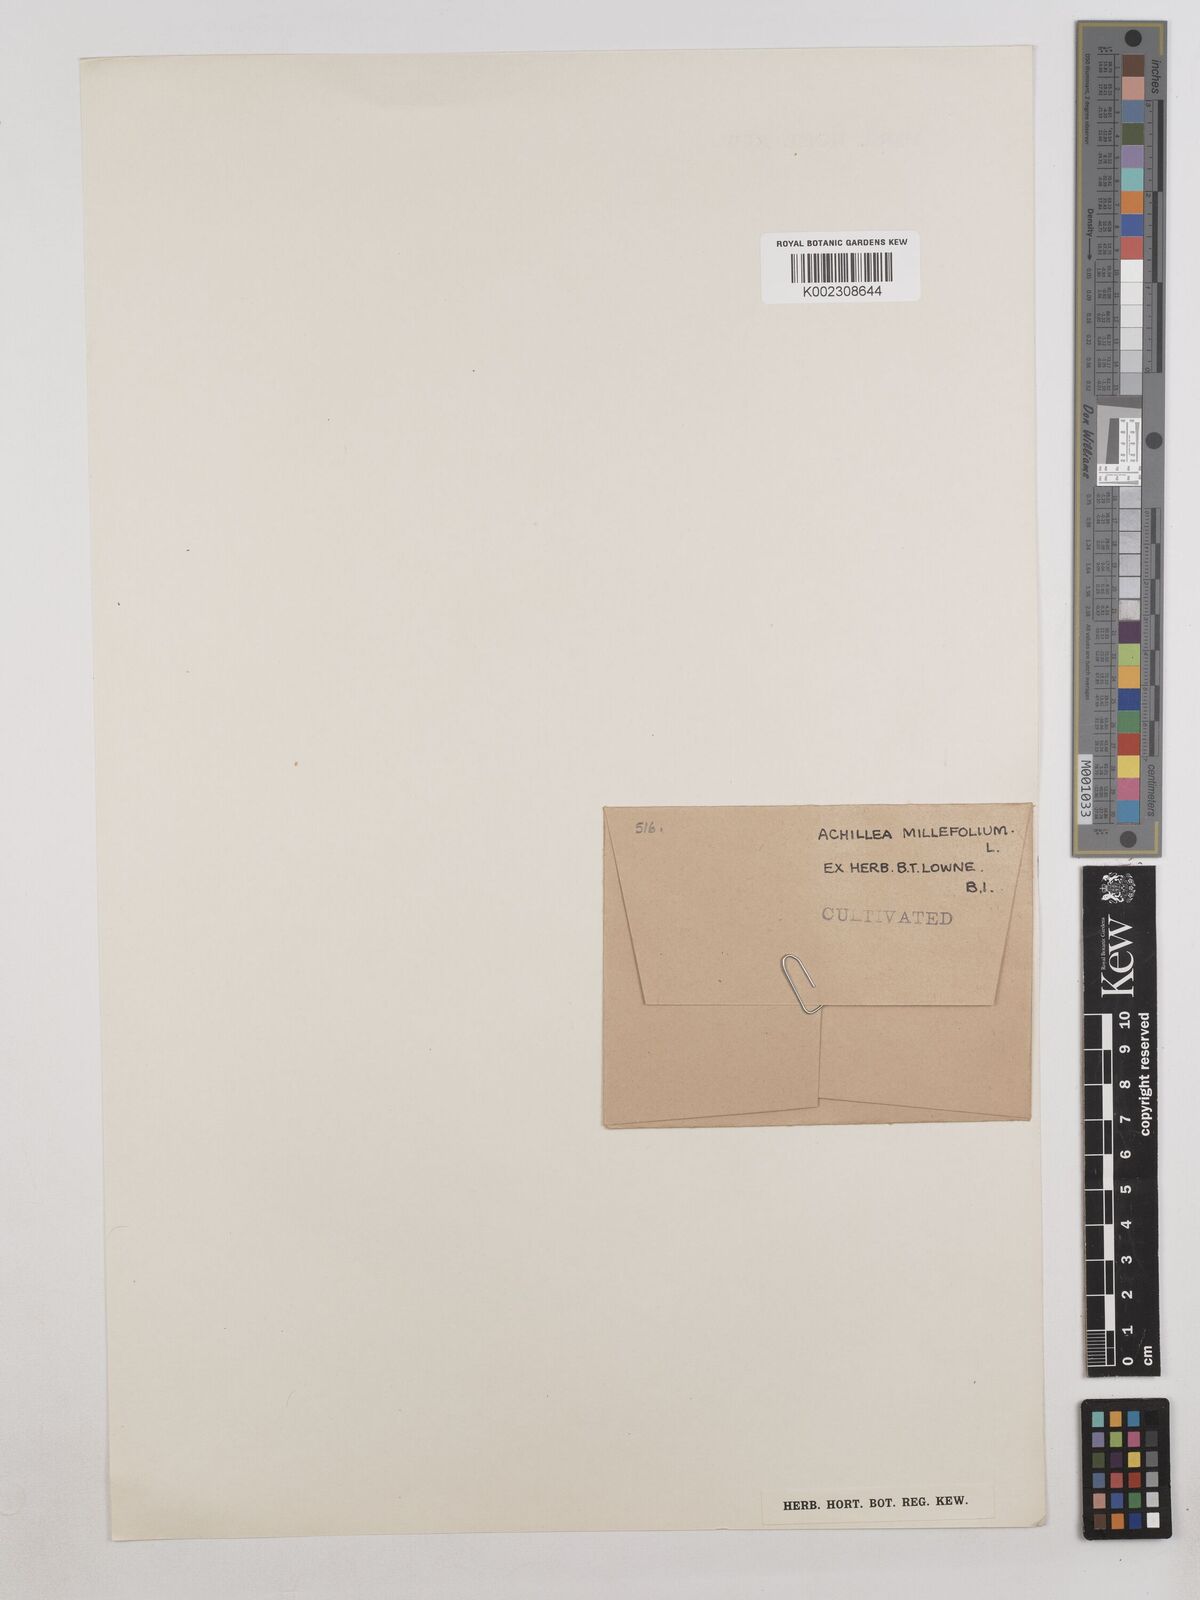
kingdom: Plantae
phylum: Tracheophyta
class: Magnoliopsida
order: Asterales
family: Asteraceae
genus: Achillea
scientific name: Achillea millefolium
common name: Yarrow
